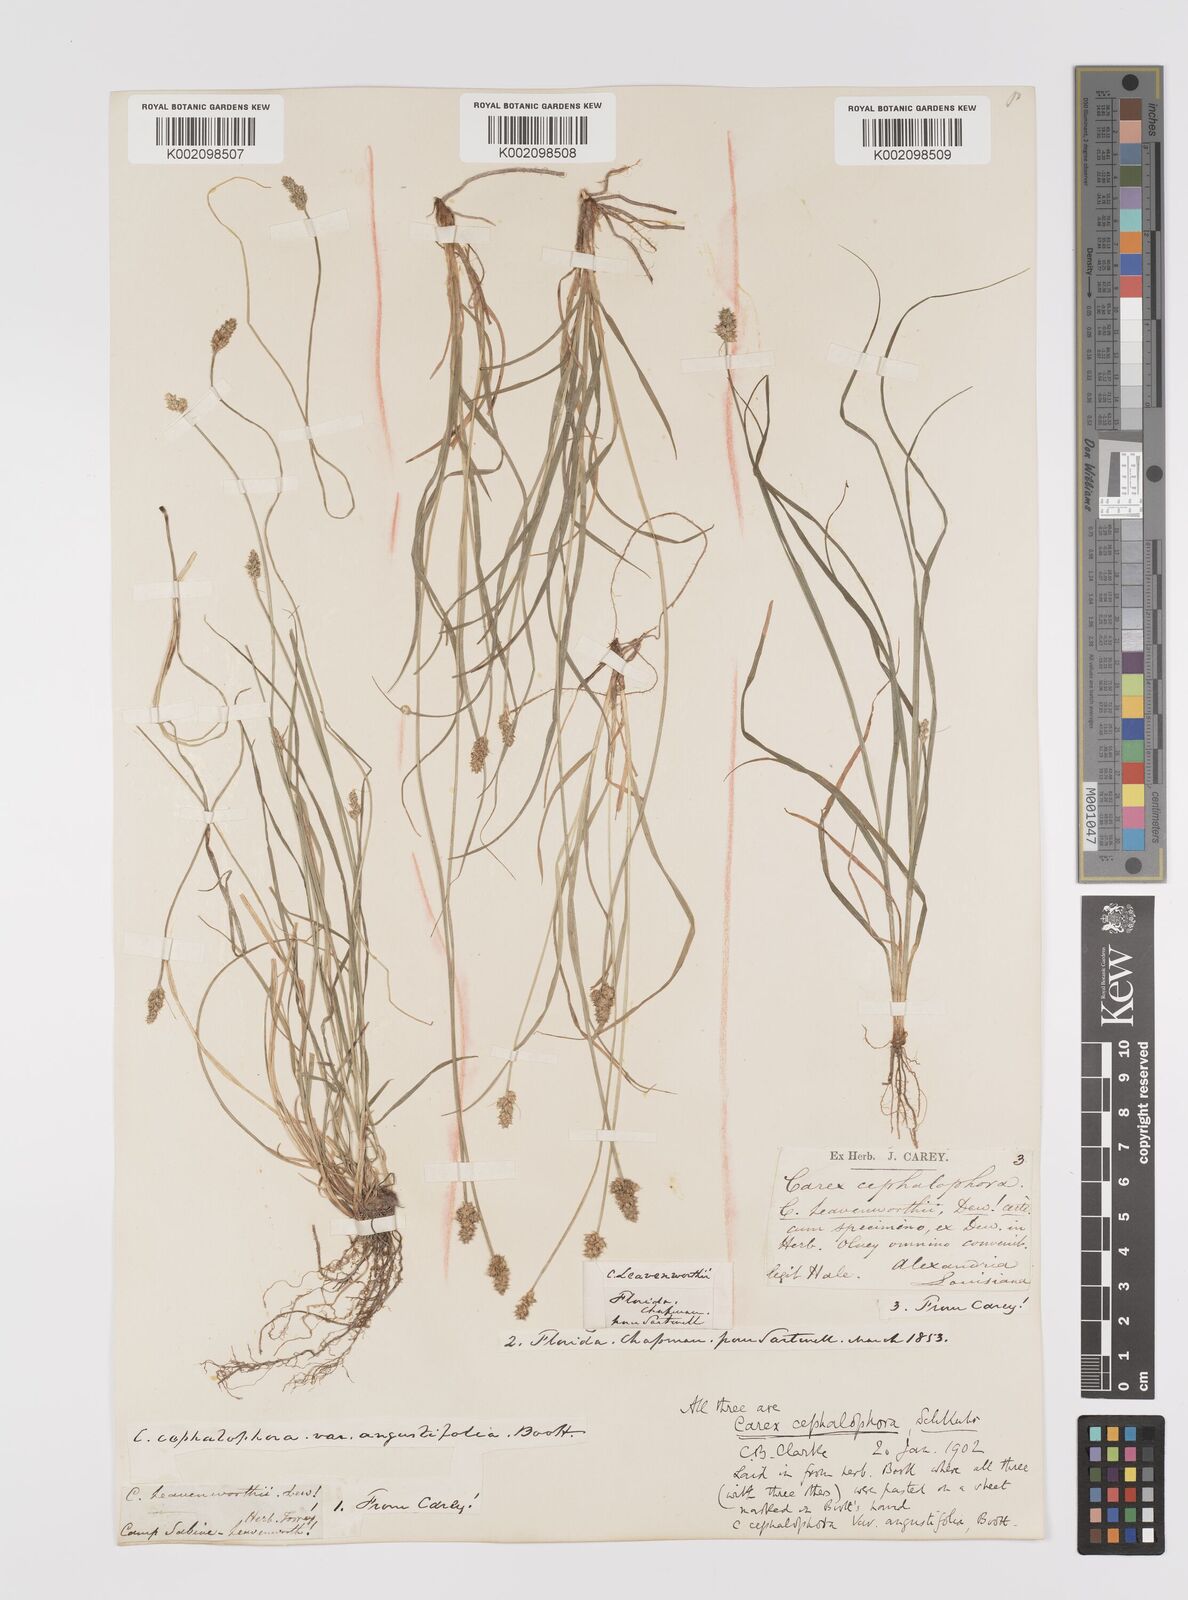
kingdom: Plantae
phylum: Tracheophyta
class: Liliopsida
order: Poales
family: Cyperaceae
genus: Carex
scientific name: Carex cephalophora
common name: Oval-headed sedge
